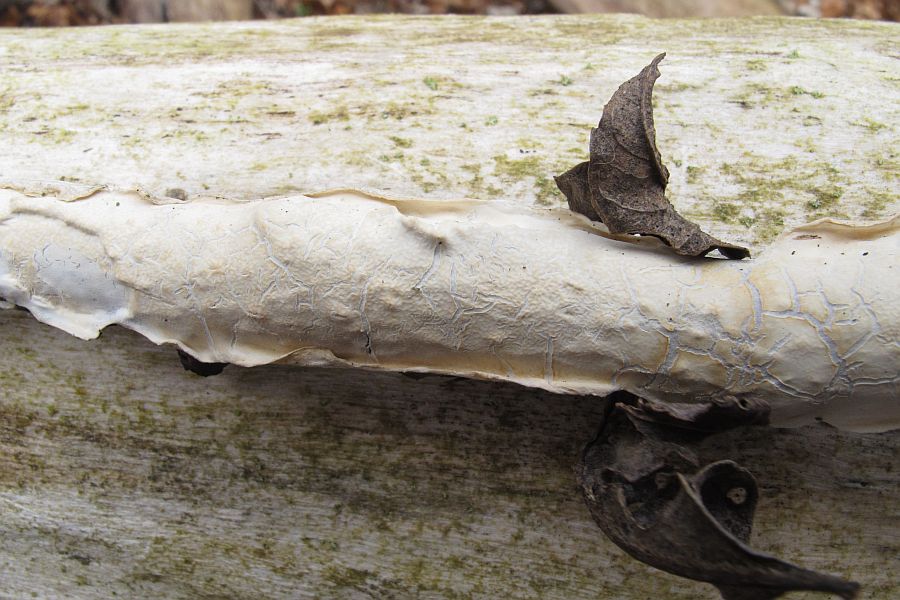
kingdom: Fungi
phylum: Basidiomycota
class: Agaricomycetes
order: Polyporales
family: Irpicaceae
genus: Byssomerulius
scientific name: Byssomerulius corium
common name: læder-åresvamp
